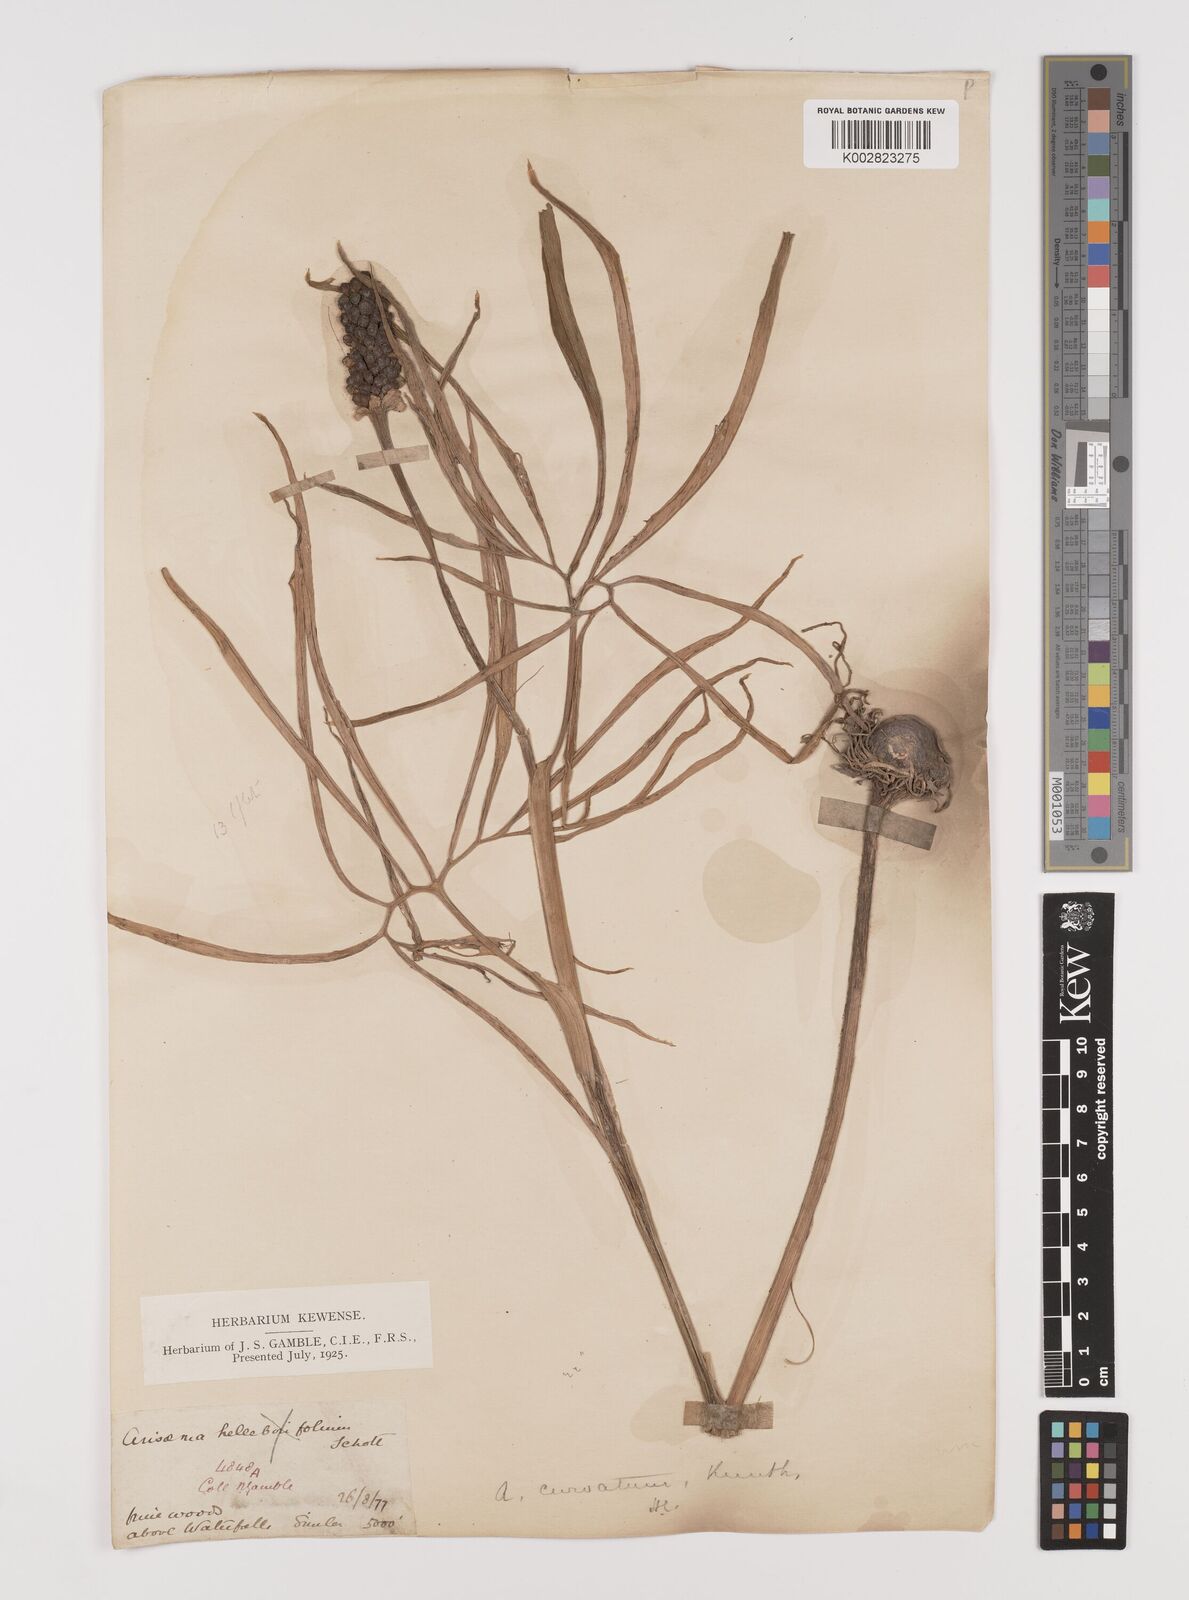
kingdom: Plantae
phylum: Tracheophyta
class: Liliopsida
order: Alismatales
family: Araceae
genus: Arisaema
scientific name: Arisaema tortuosum
